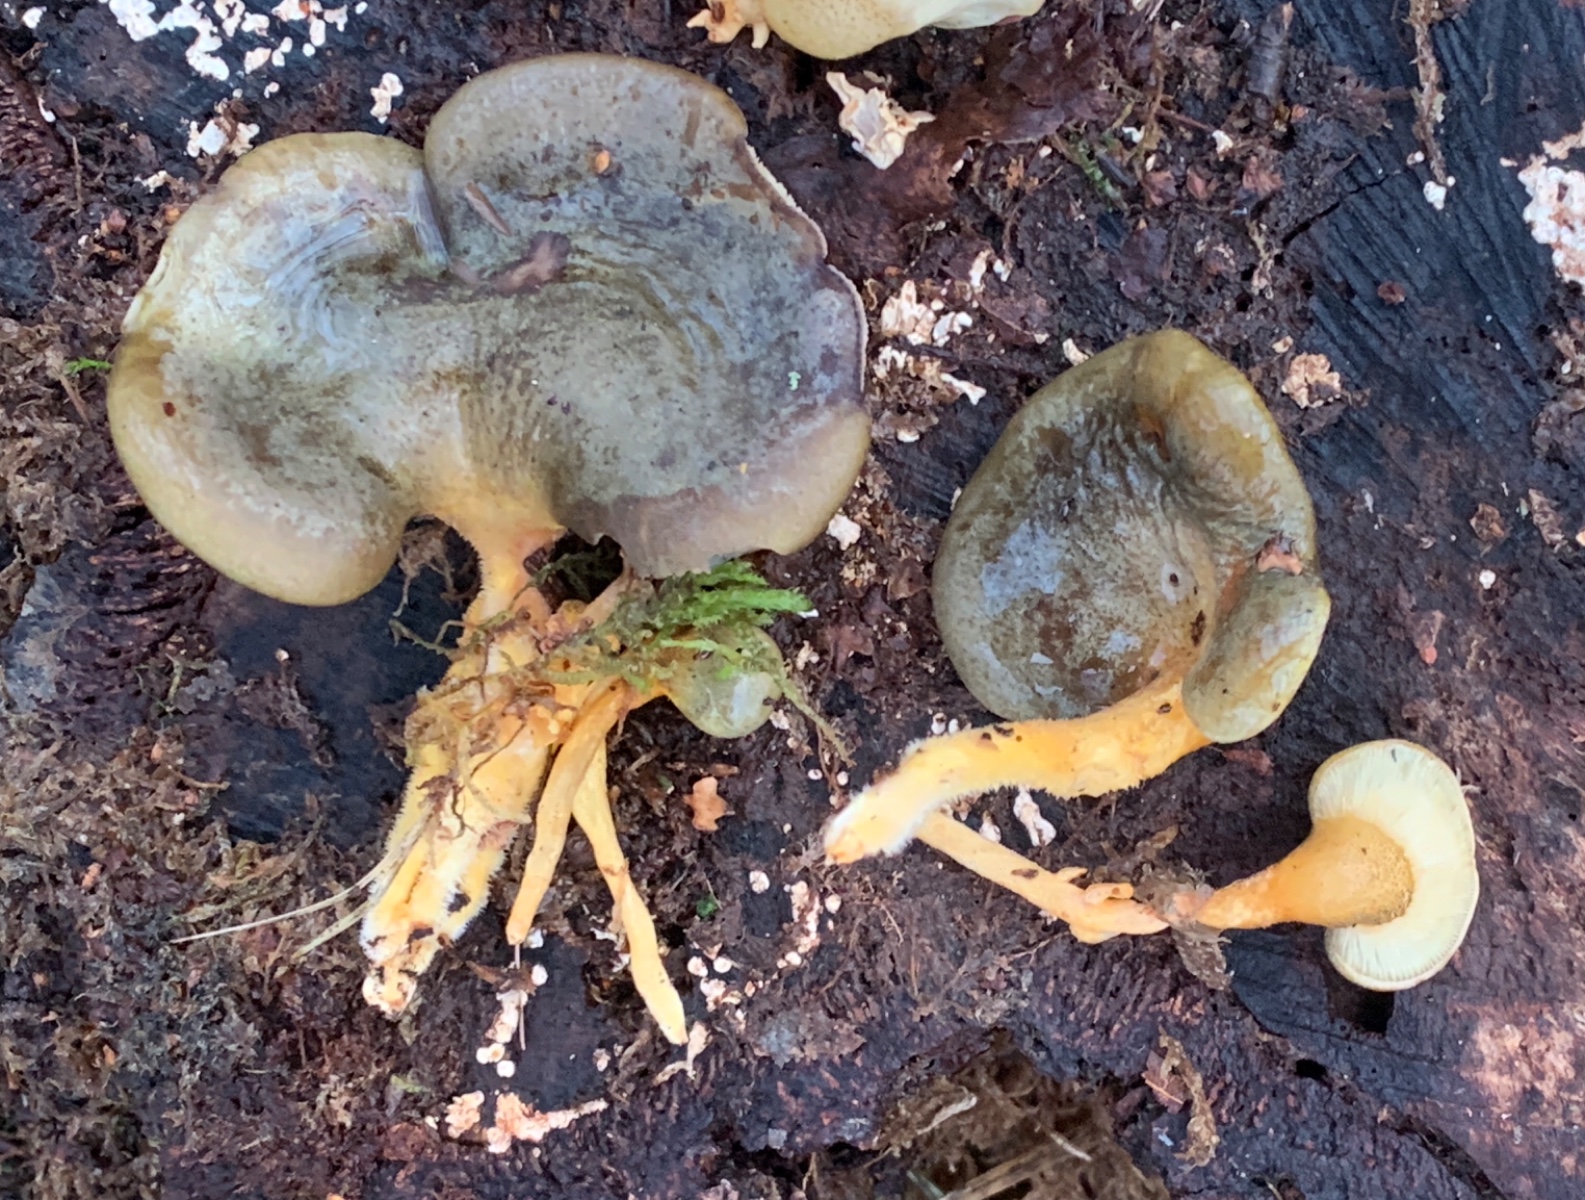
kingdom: Fungi
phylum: Basidiomycota
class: Agaricomycetes
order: Agaricales
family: Sarcomyxaceae
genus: Sarcomyxa
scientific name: Sarcomyxa serotina
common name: gummihat
